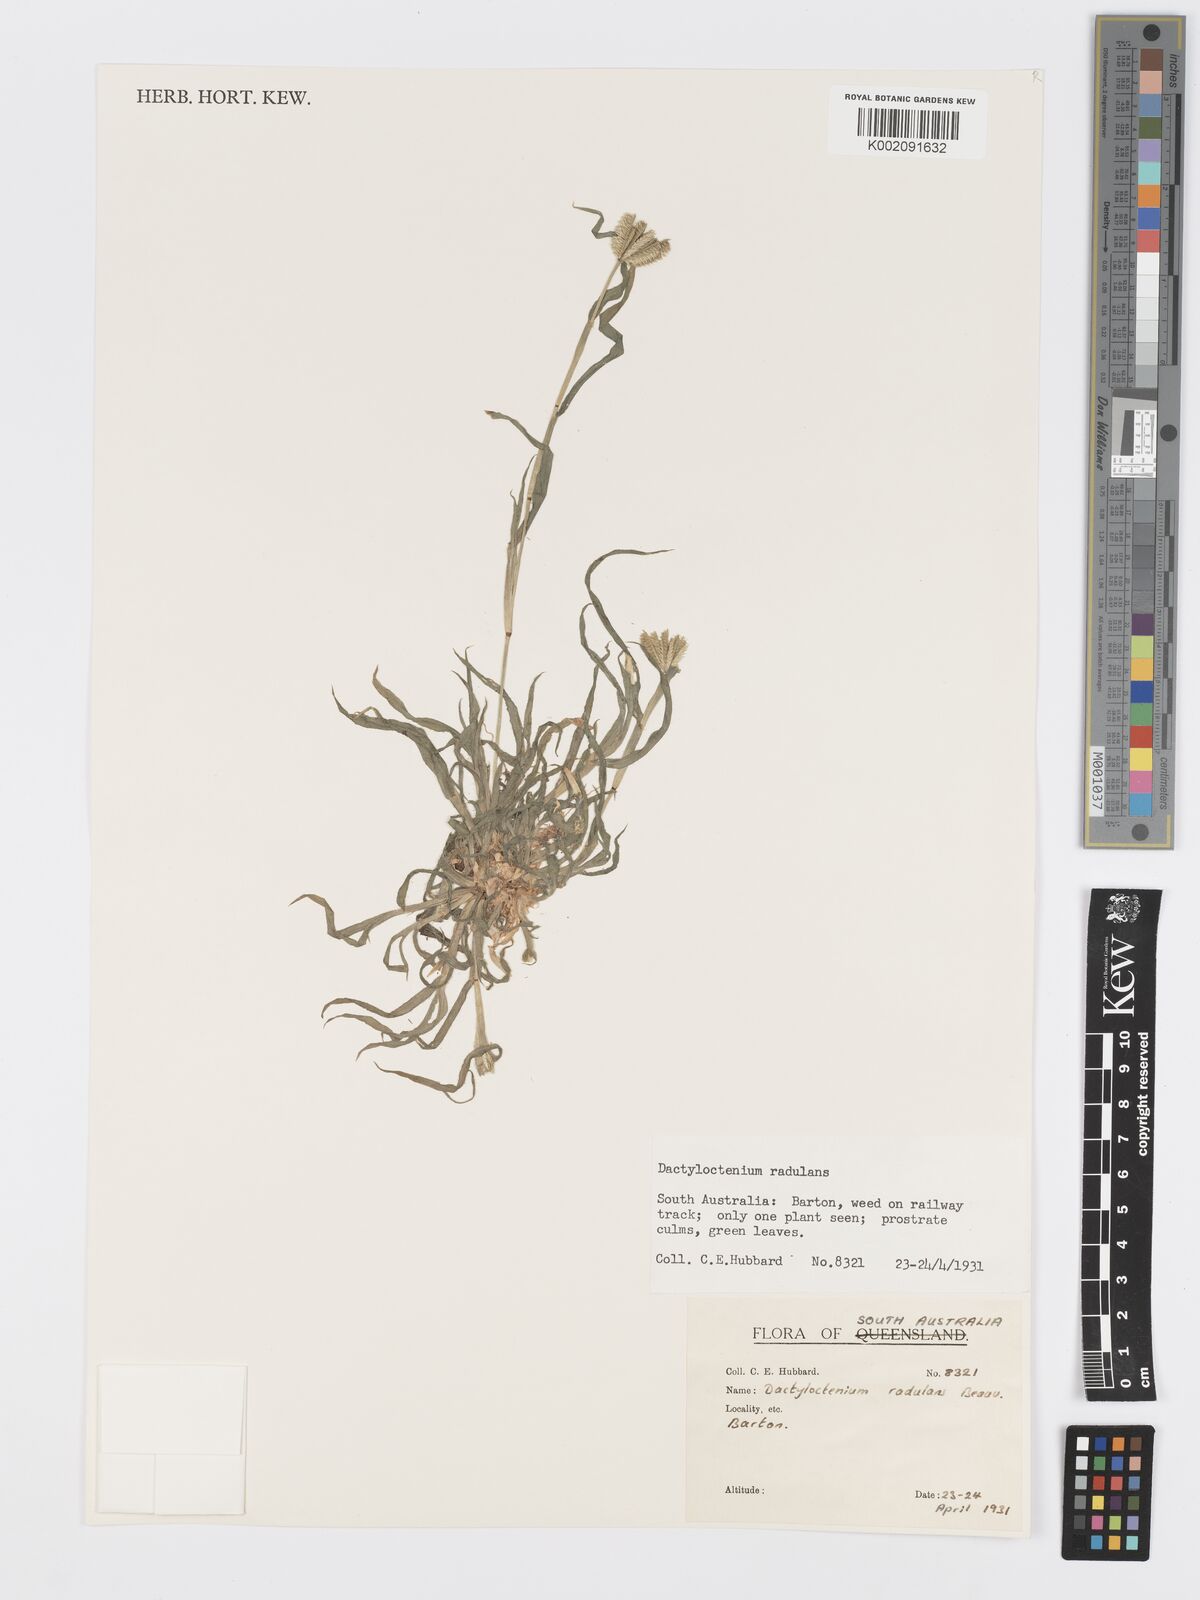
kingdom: Plantae
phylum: Tracheophyta
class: Liliopsida
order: Poales
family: Poaceae
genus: Dactyloctenium
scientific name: Dactyloctenium radulans
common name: Button-grass
